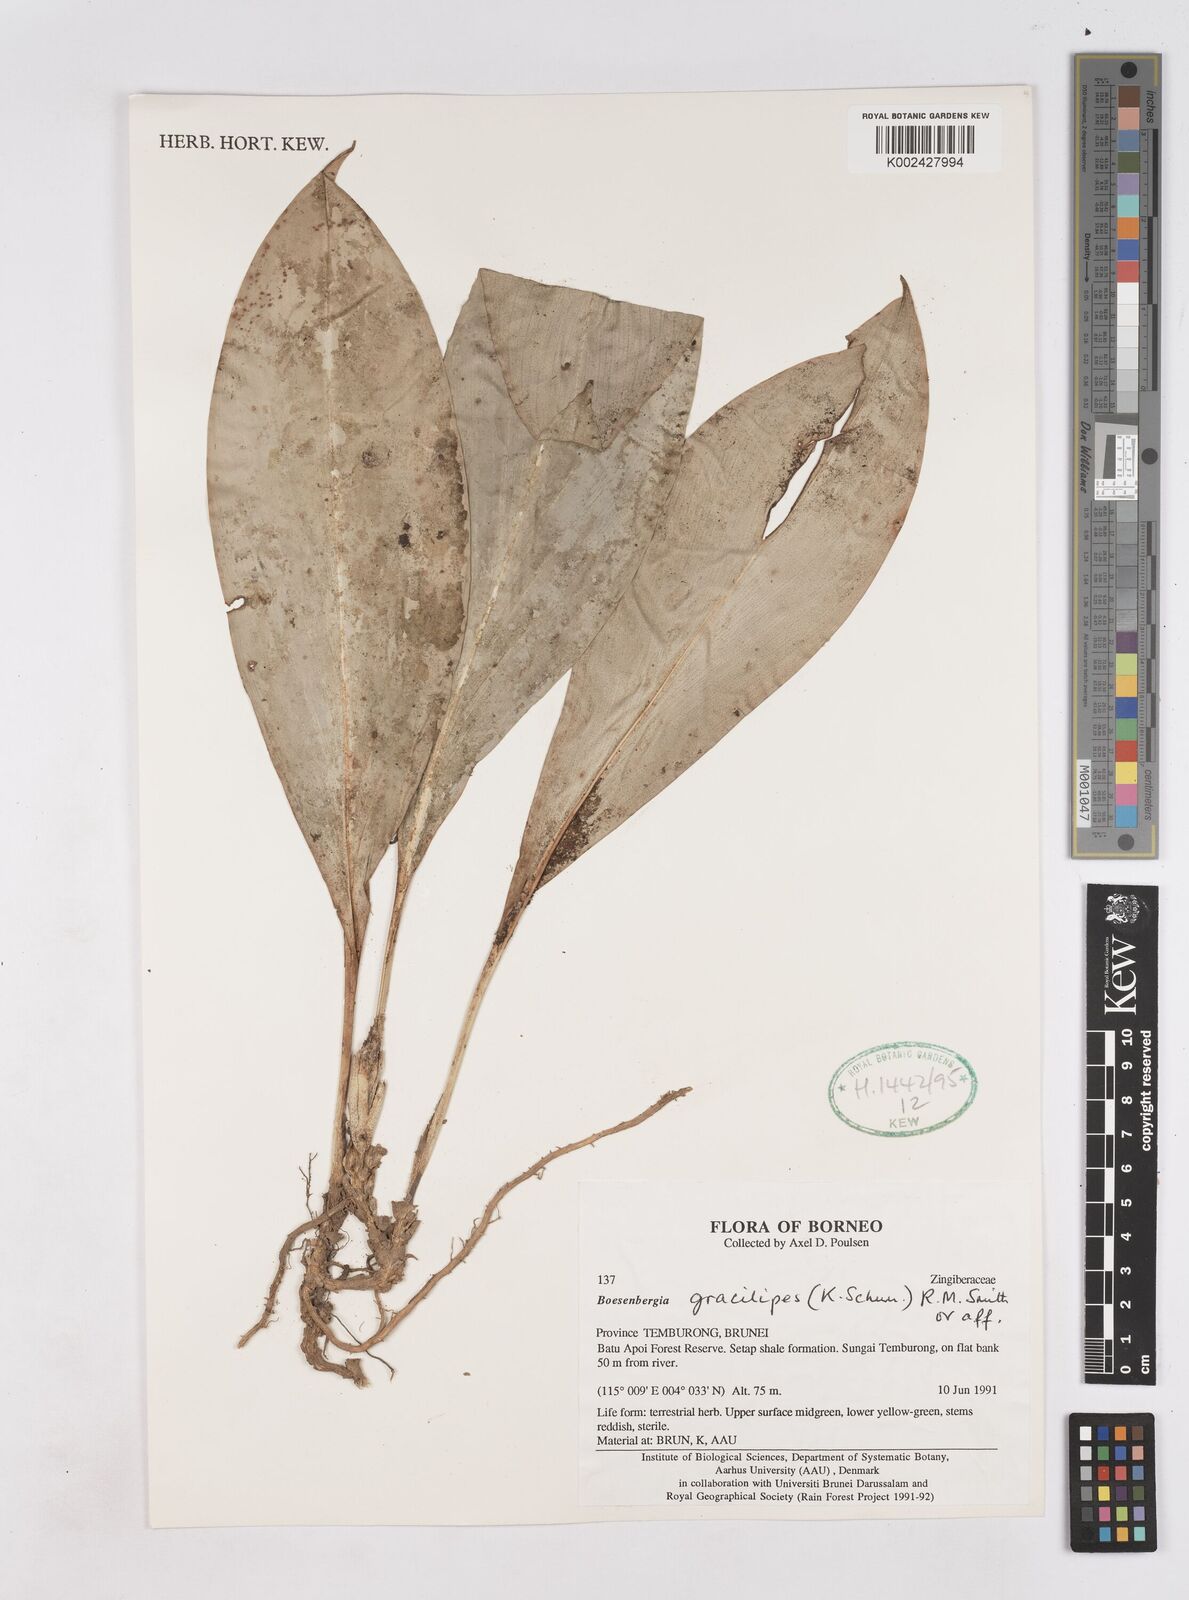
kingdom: Plantae
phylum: Tracheophyta
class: Liliopsida
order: Zingiberales
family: Zingiberaceae
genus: Scaphochlamys
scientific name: Scaphochlamys gracilipes
